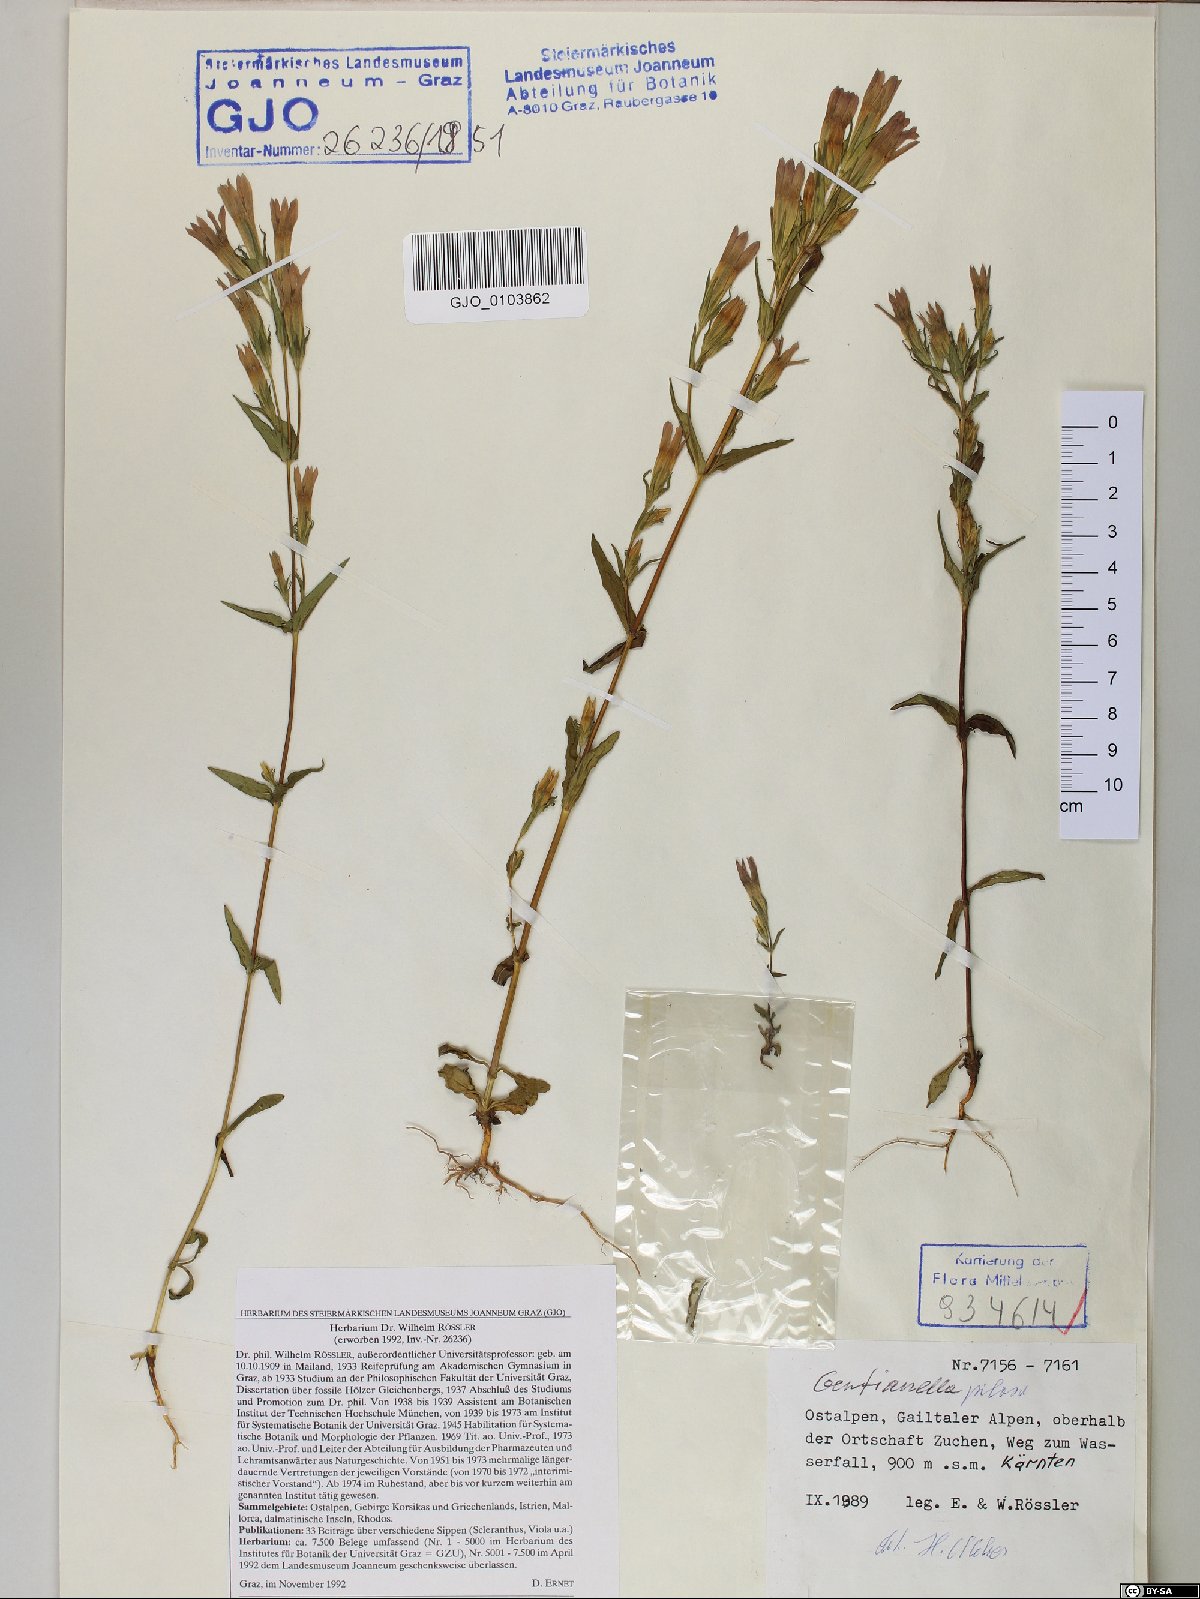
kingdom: Plantae
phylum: Tracheophyta
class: Magnoliopsida
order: Gentianales
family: Gentianaceae
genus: Gentianella
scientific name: Gentianella pilosa
